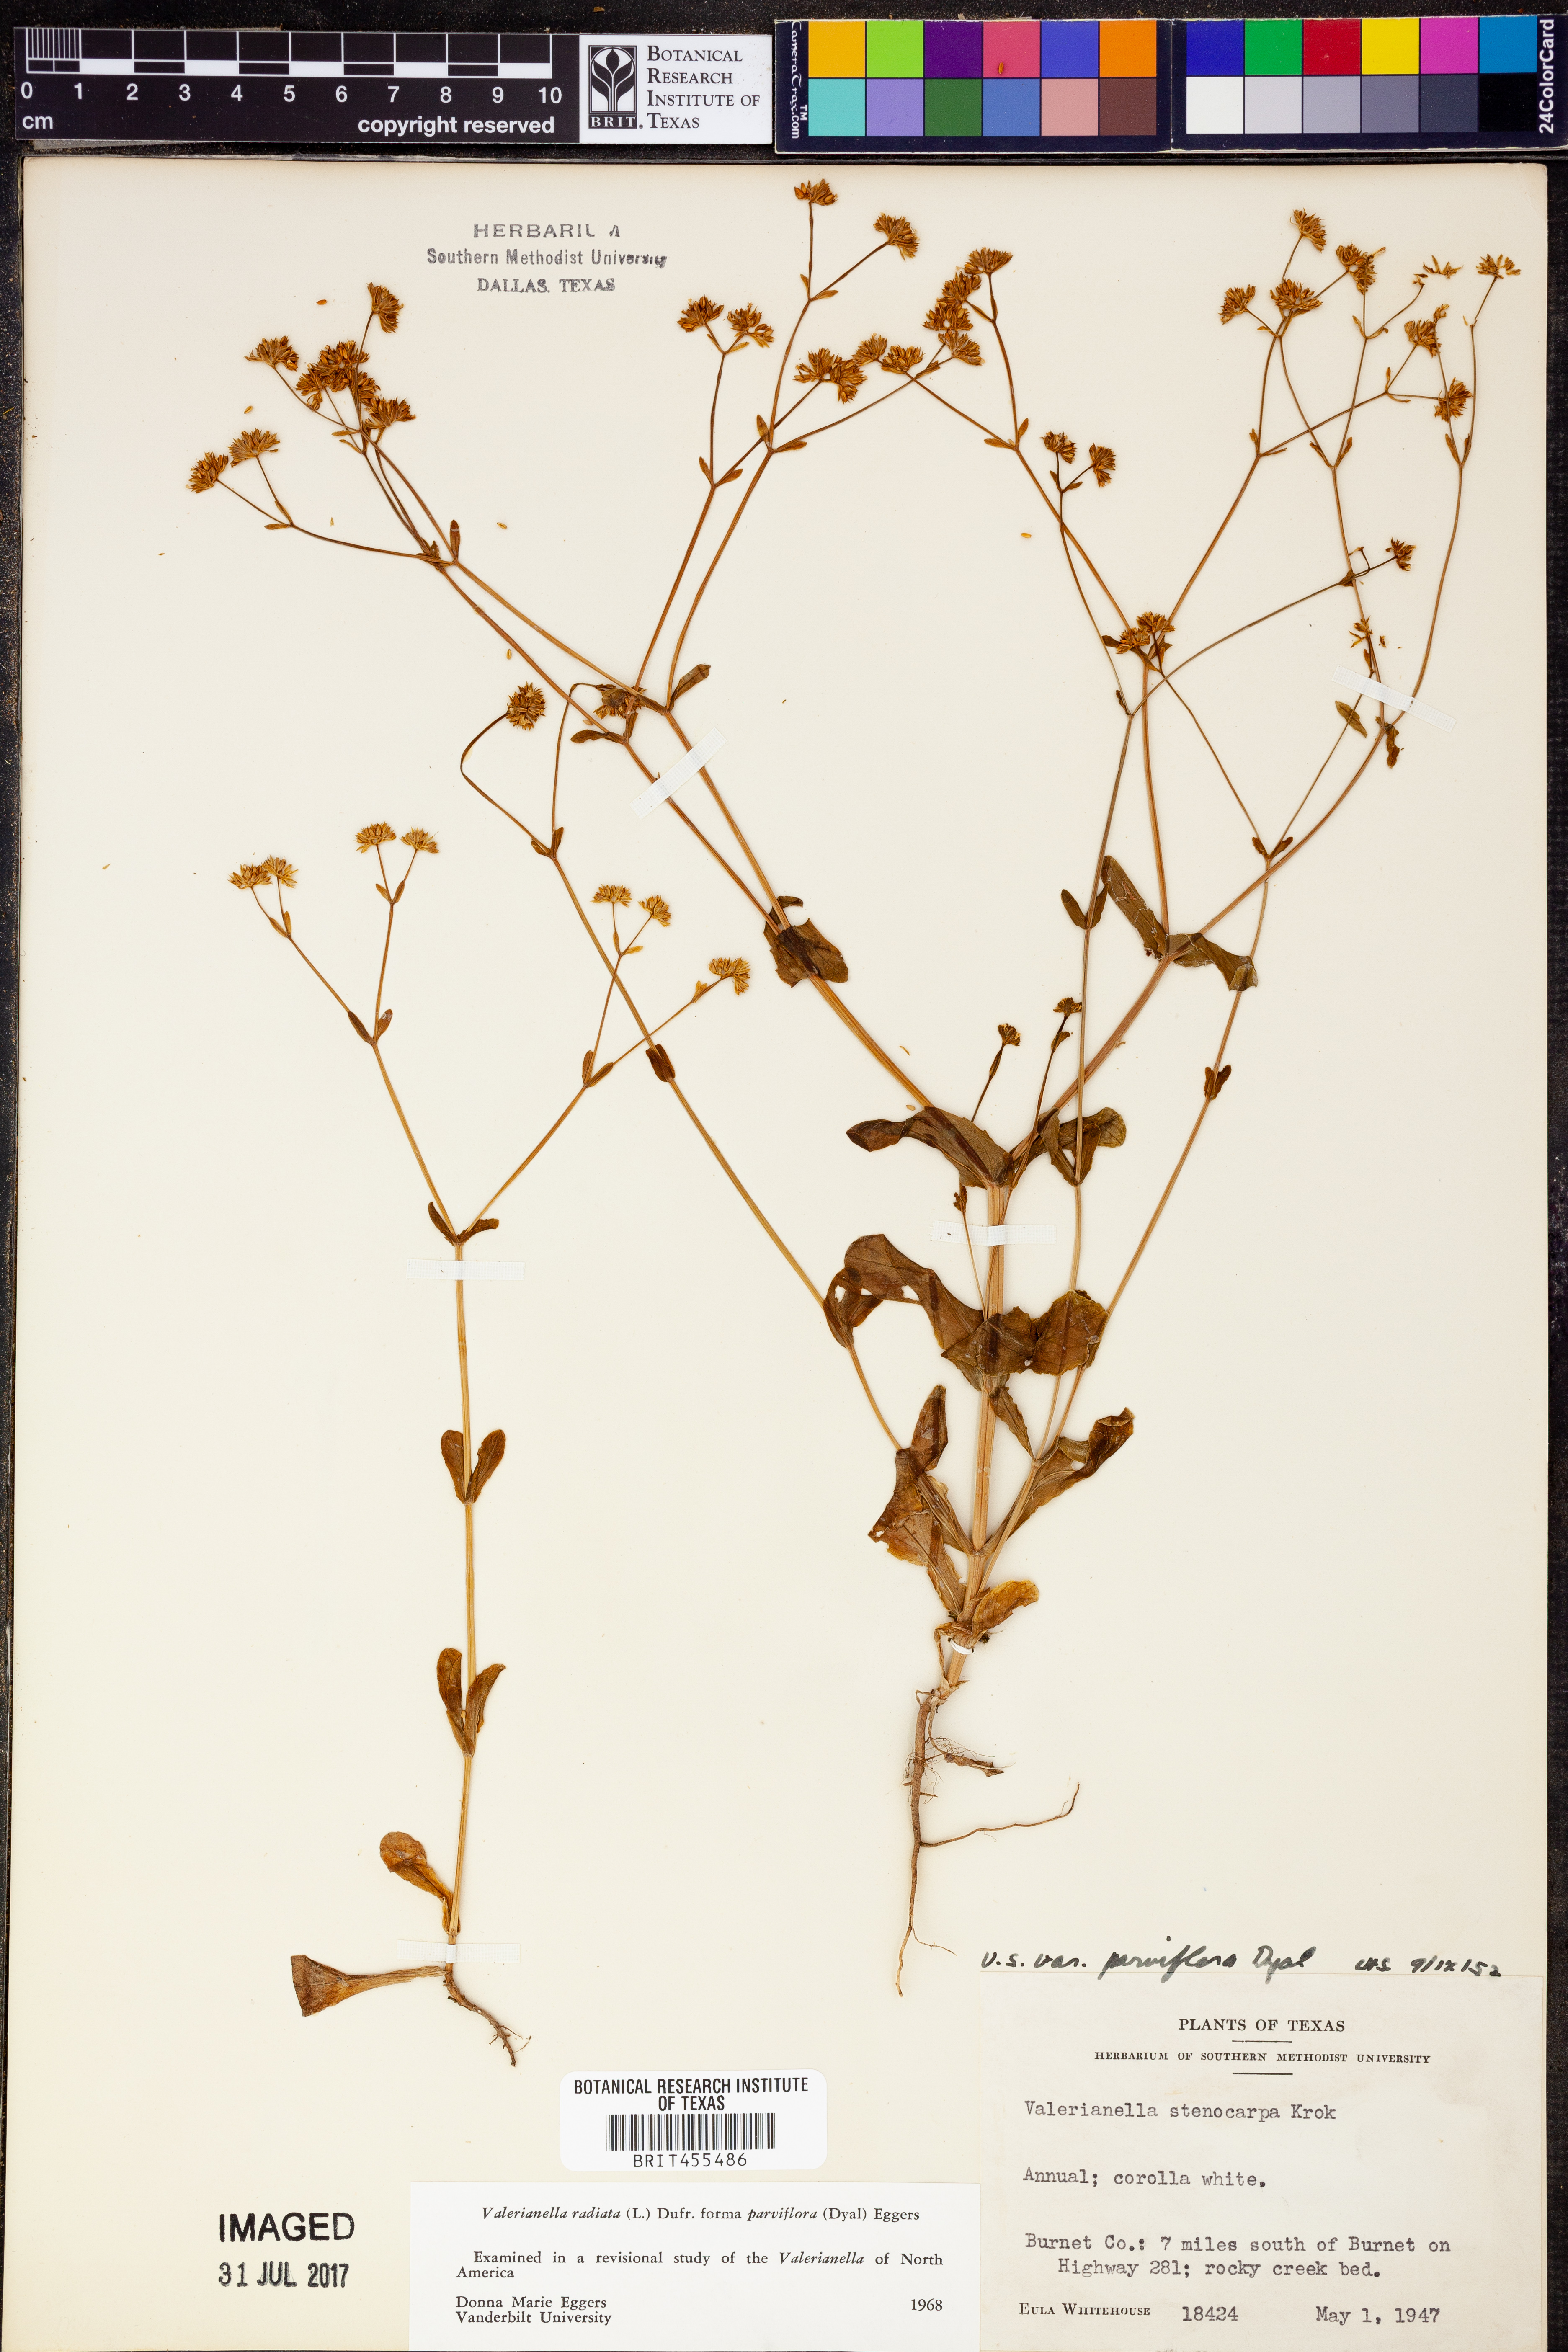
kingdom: Plantae
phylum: Tracheophyta
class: Magnoliopsida
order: Dipsacales
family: Caprifoliaceae
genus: Valerianella
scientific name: Valerianella radiata
